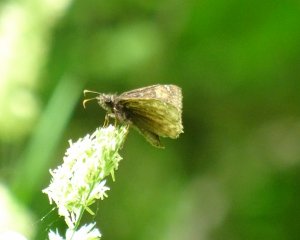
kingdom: Animalia
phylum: Arthropoda
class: Insecta
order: Lepidoptera
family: Hesperiidae
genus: Erynnis
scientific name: Erynnis
